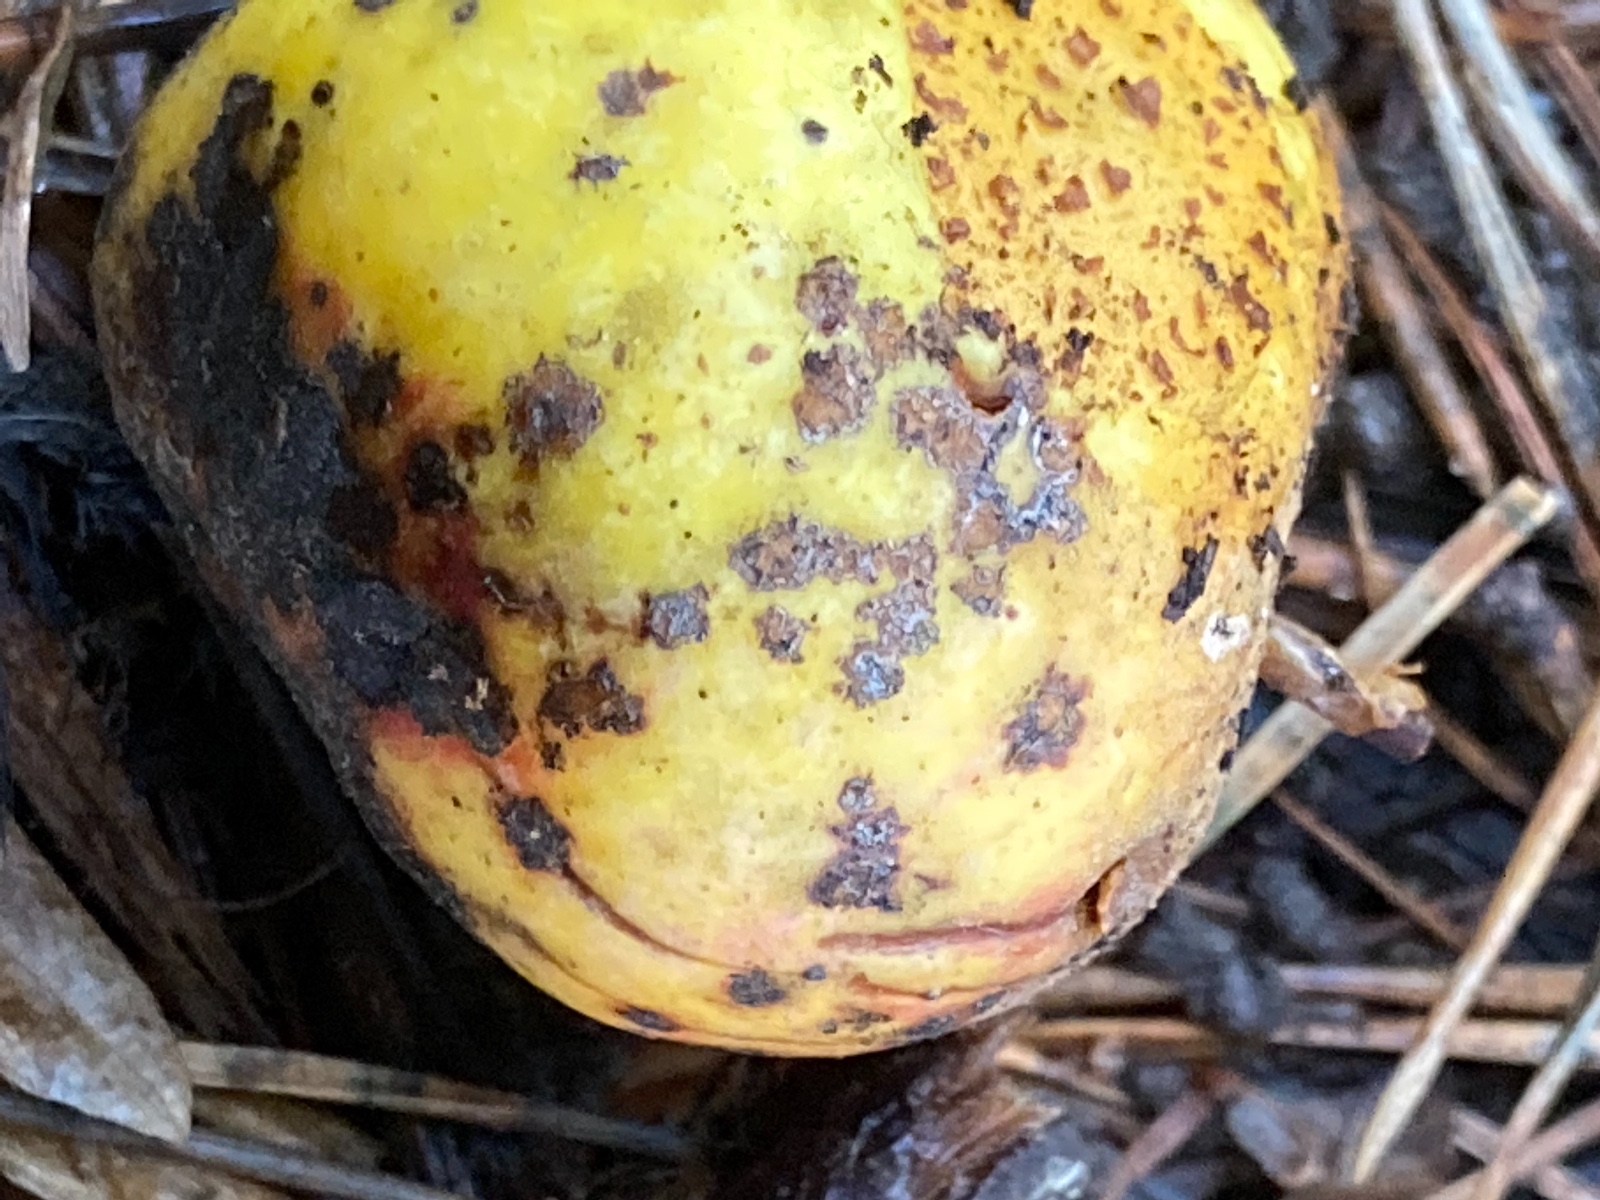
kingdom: Fungi
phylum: Ascomycota
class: Dothideomycetes
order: Venturiales
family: Venturiaceae
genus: Venturia
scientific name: Venturia inaequalis
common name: Apple scab
